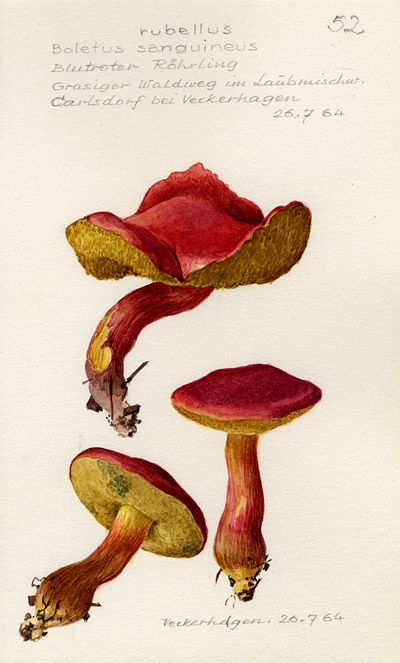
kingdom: Fungi
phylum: Basidiomycota
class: Agaricomycetes
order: Boletales
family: Boletaceae
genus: Hortiboletus
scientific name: Hortiboletus rubellus
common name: Ruby bolete
